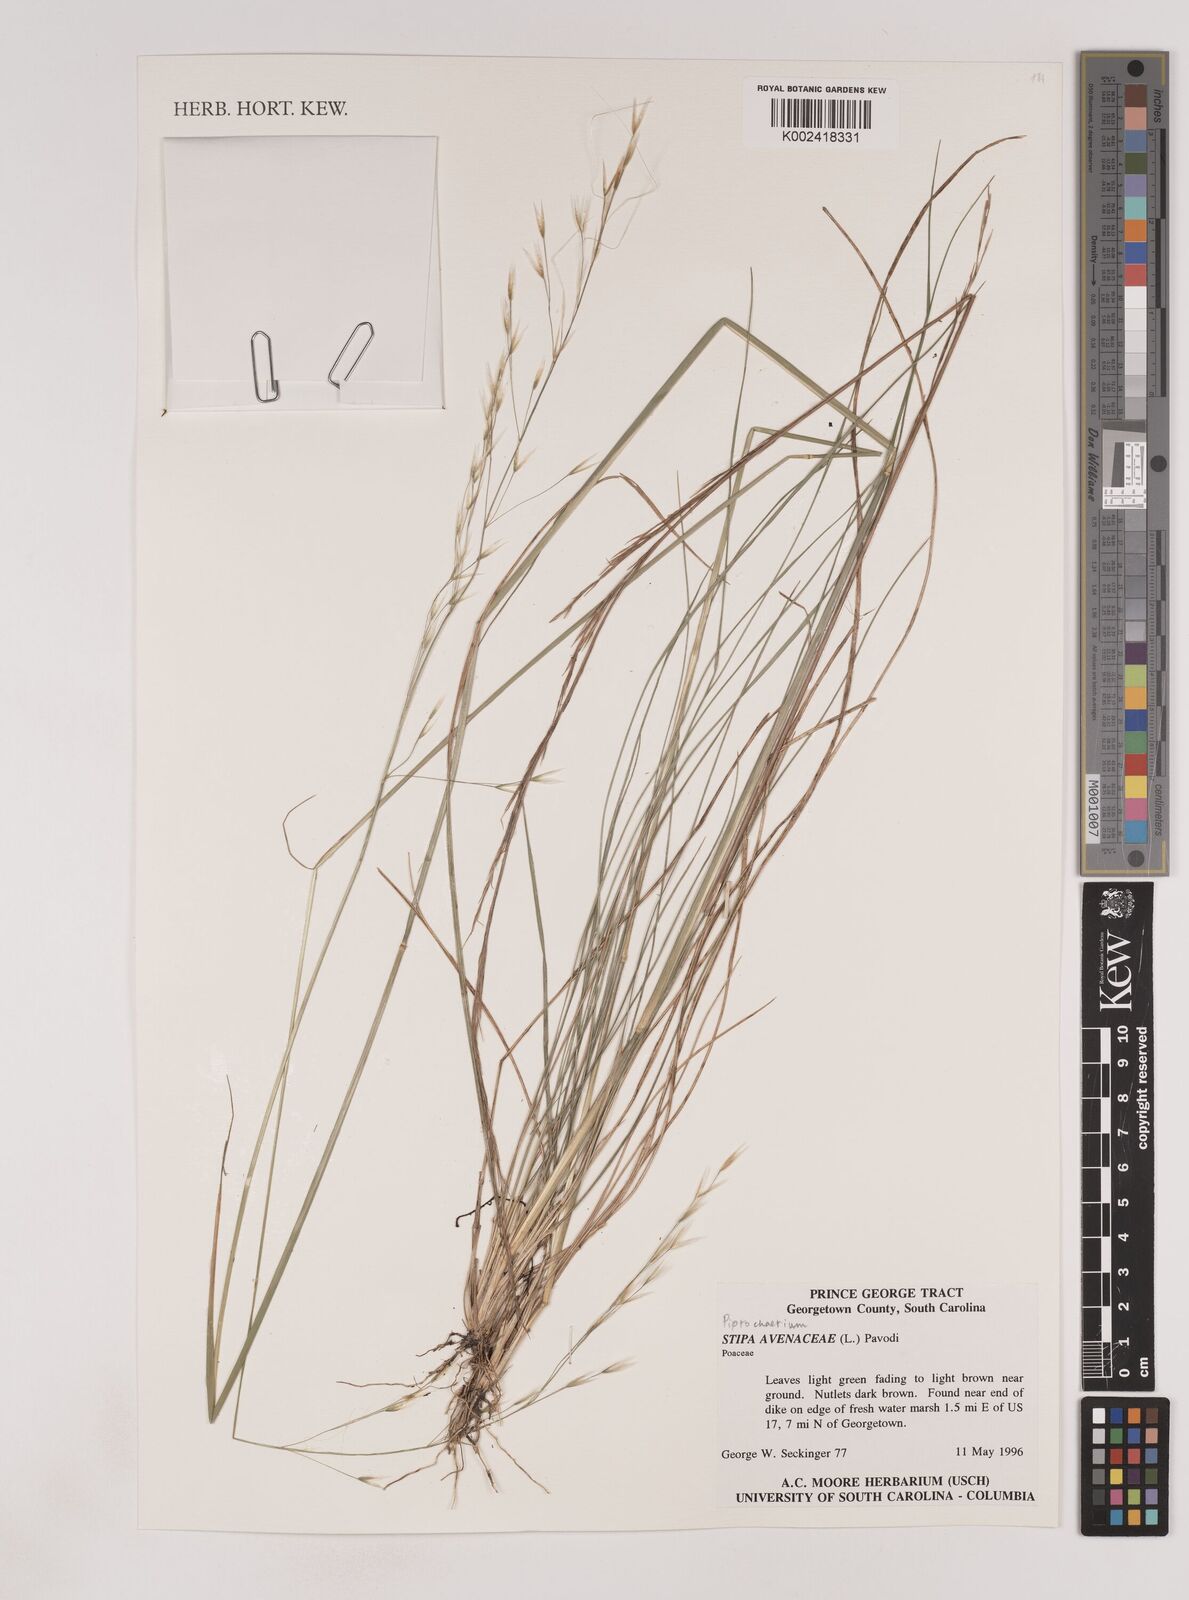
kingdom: Plantae
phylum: Tracheophyta
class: Liliopsida
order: Poales
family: Poaceae
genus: Piptochaetium
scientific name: Piptochaetium avenaceum
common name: Black bunchgrass
